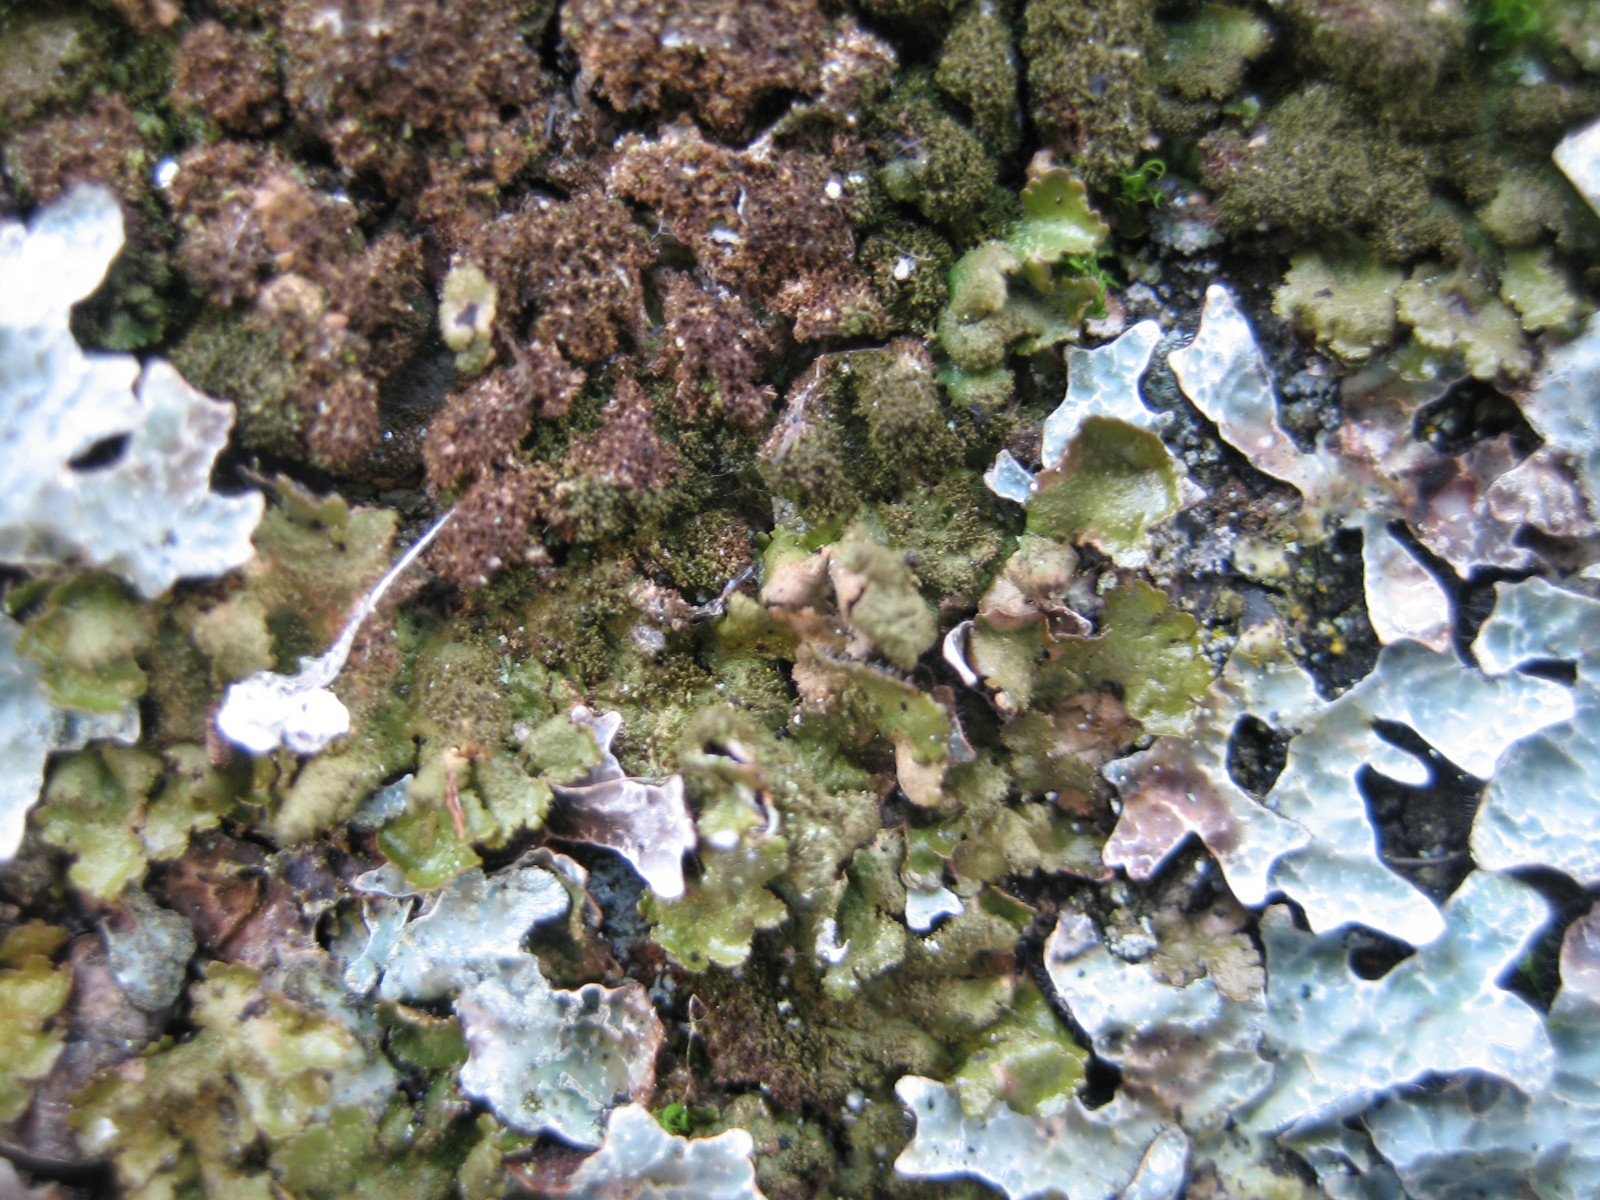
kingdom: Fungi
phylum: Ascomycota
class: Lecanoromycetes
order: Lecanorales
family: Parmeliaceae
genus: Melanelixia
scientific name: Melanelixia glabratula
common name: glinsende skållav
